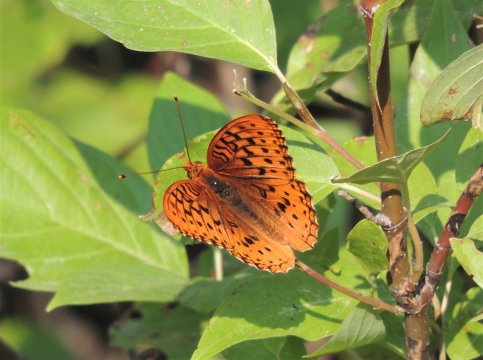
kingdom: Animalia
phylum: Arthropoda
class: Insecta
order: Lepidoptera
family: Nymphalidae
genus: Speyeria
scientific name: Speyeria cybele
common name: Great Spangled Fritillary
